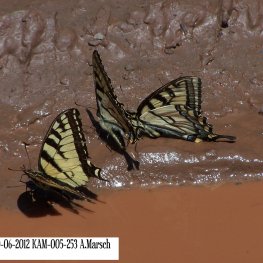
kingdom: Animalia
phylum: Arthropoda
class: Insecta
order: Lepidoptera
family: Papilionidae
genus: Pterourus
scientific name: Pterourus canadensis
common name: Canadian Tiger Swallowtail
